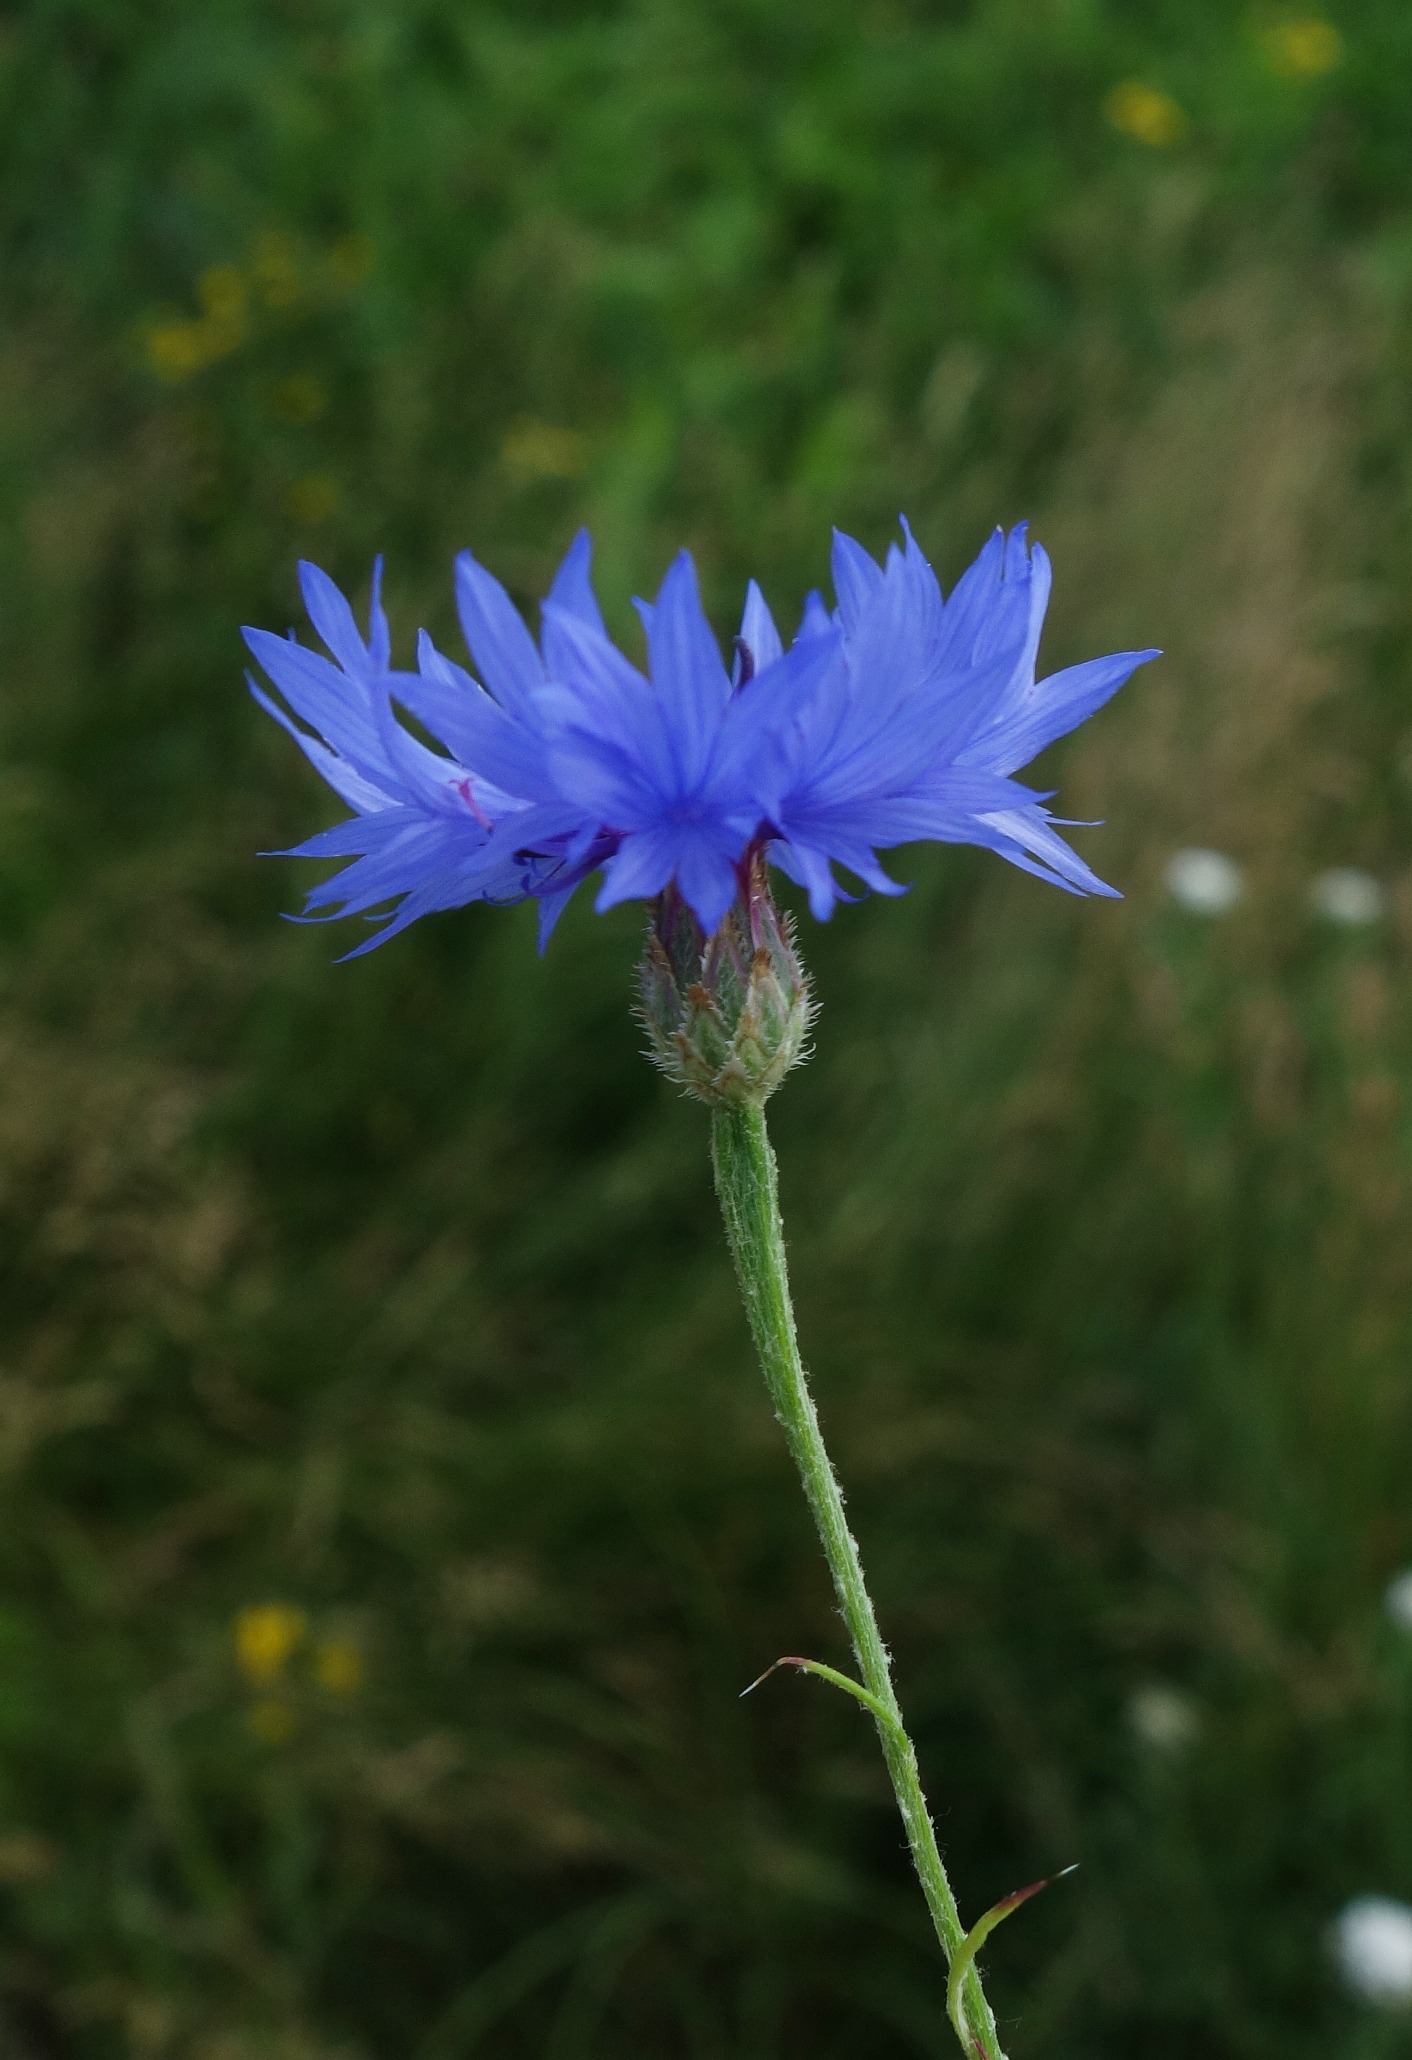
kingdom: Plantae
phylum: Tracheophyta
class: Magnoliopsida
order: Asterales
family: Asteraceae
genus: Centaurea
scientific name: Centaurea cyanus
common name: Kornblomst
